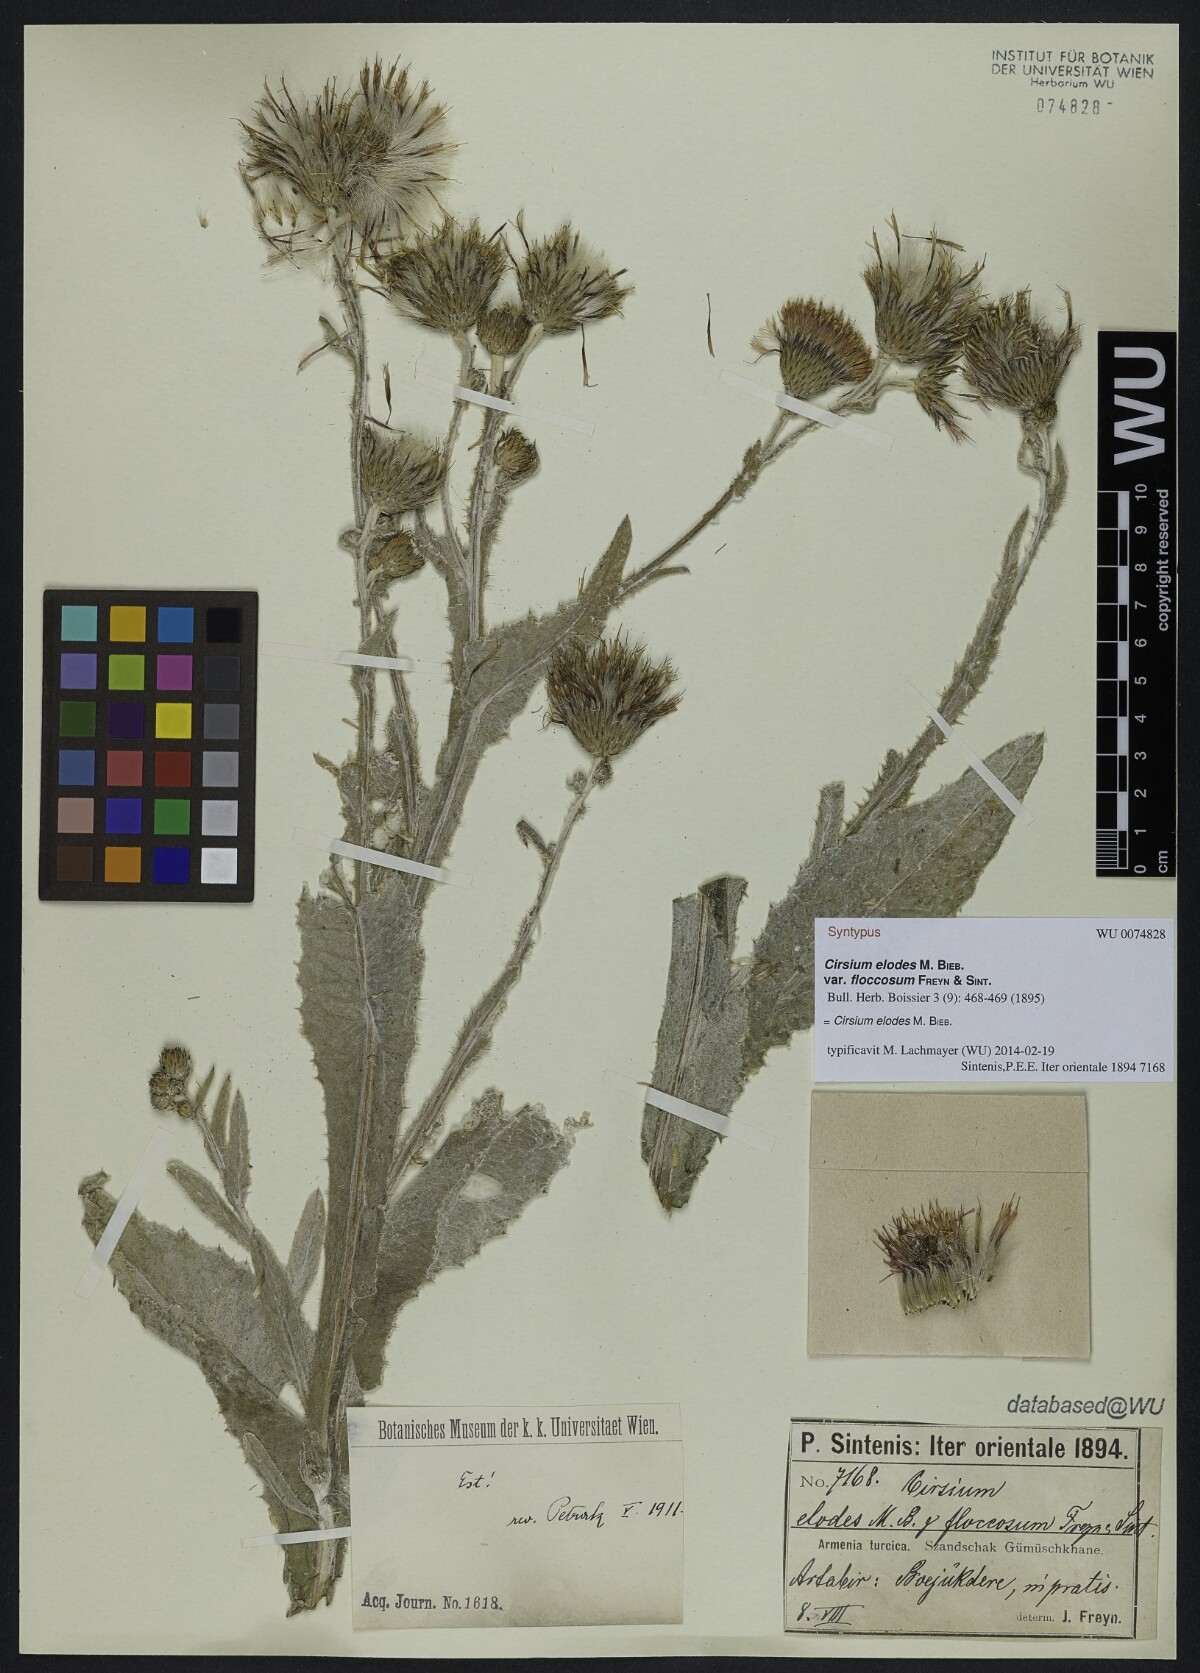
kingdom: Plantae
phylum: Tracheophyta
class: Magnoliopsida
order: Asterales
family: Asteraceae
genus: Cirsium
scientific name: Cirsium alatum
